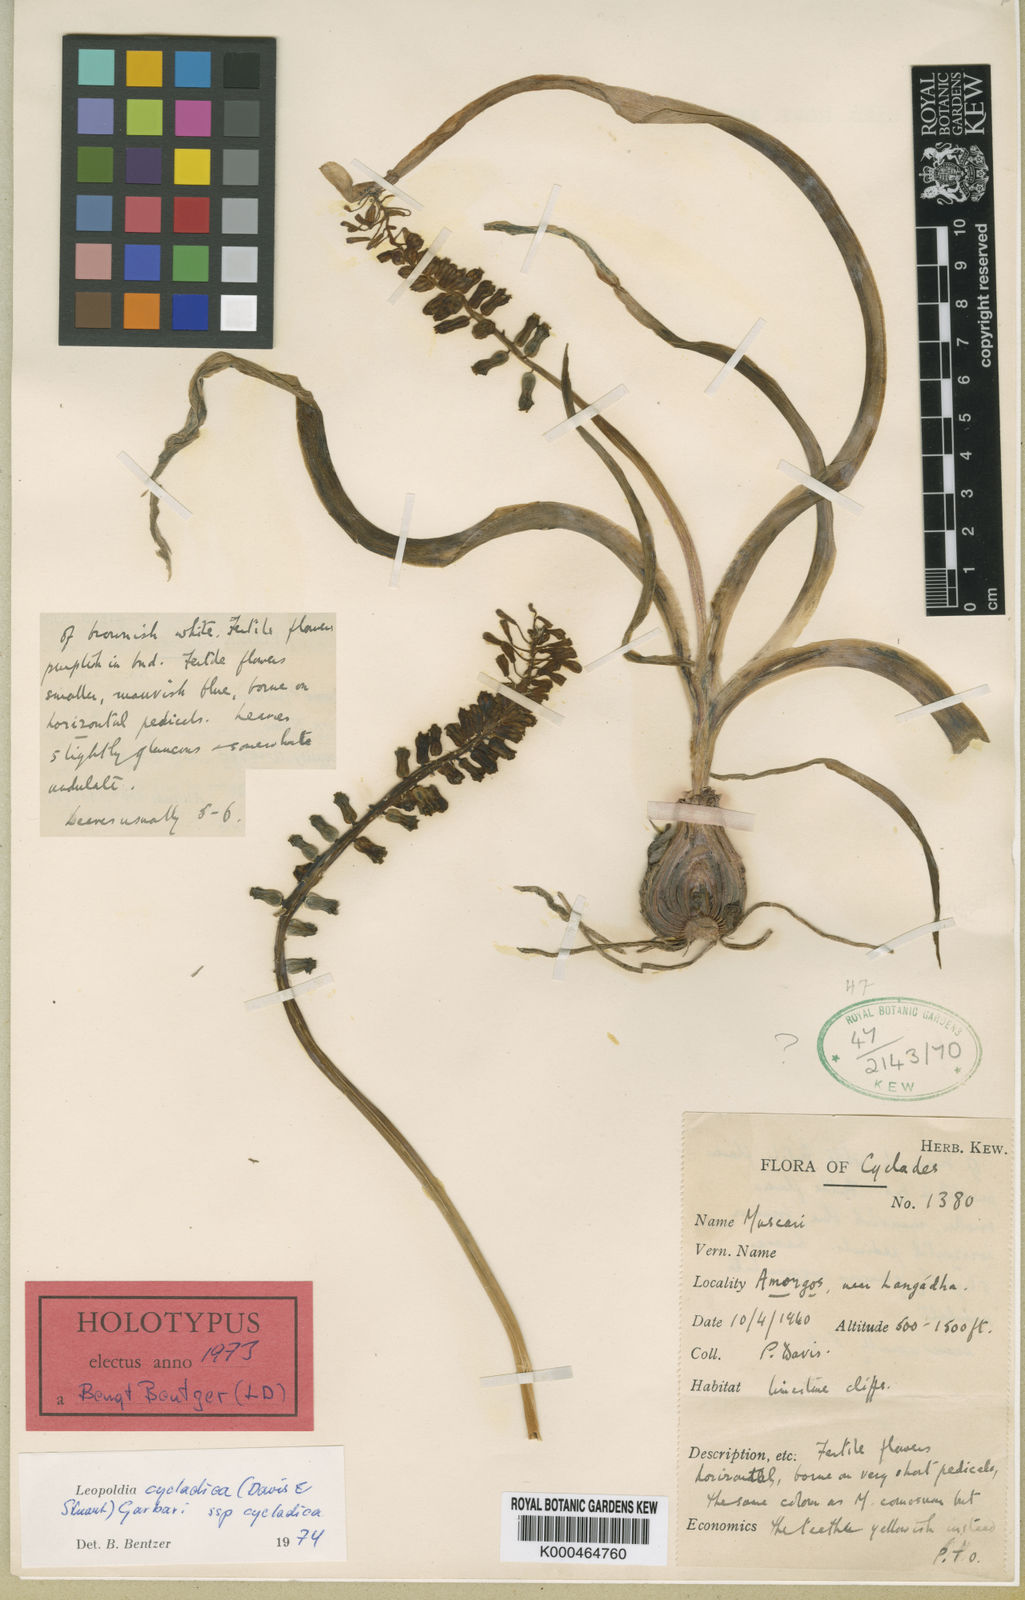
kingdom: Plantae
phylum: Tracheophyta
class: Liliopsida
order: Asparagales
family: Asparagaceae
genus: Muscari
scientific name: Muscari cycladicum
